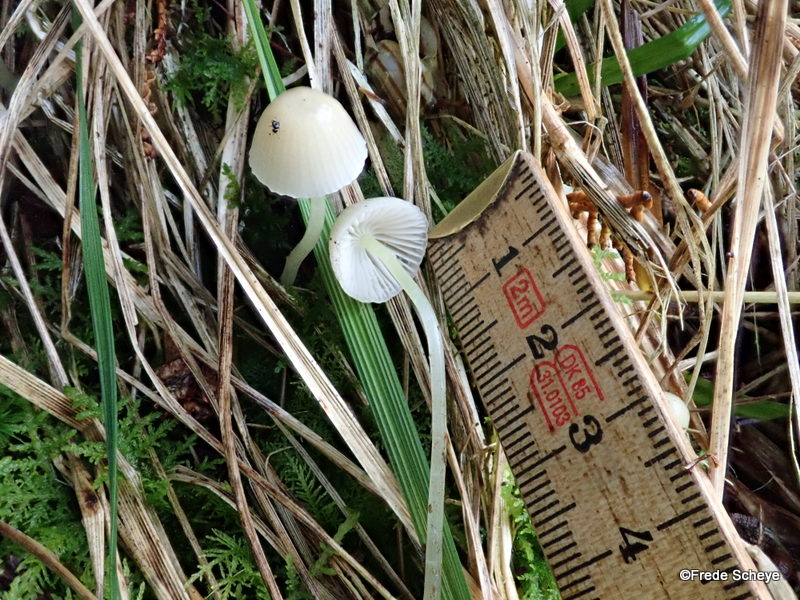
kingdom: Fungi
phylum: Basidiomycota
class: Agaricomycetes
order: Agaricales
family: Mycenaceae
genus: Mycena
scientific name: Mycena epipterygia
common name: gulstokket huesvamp
